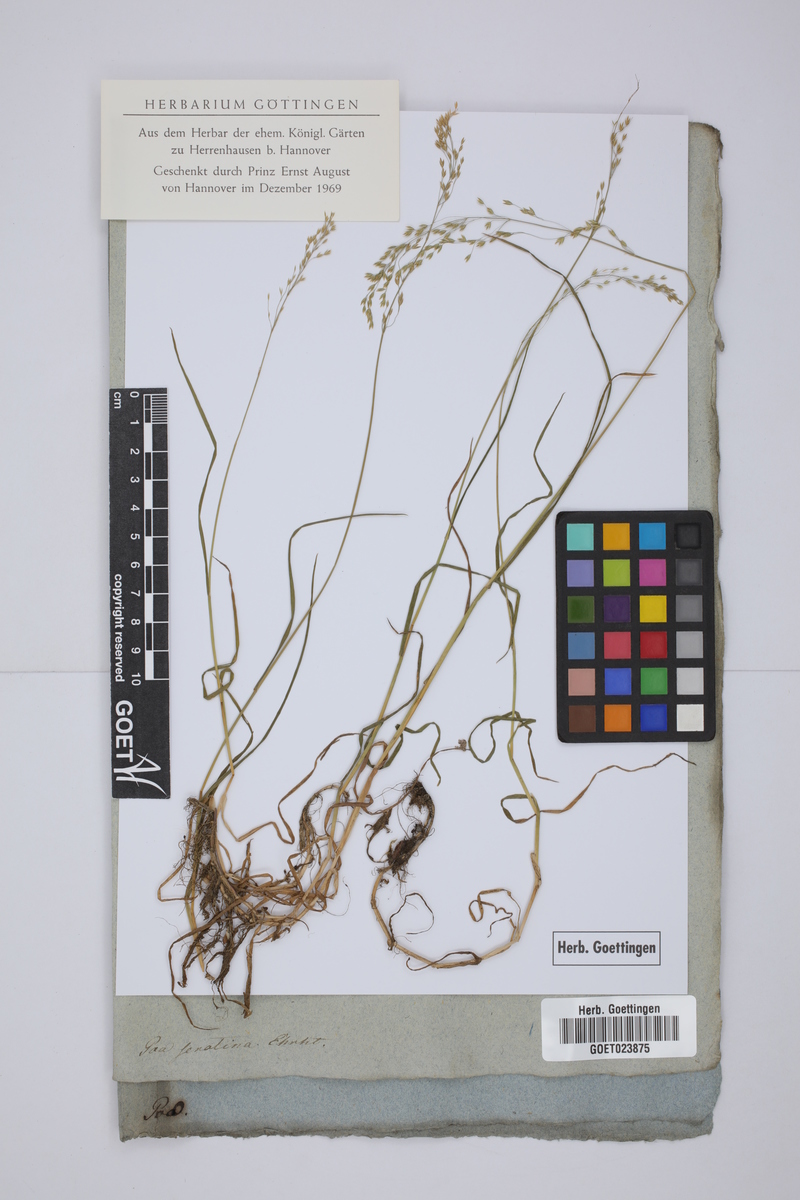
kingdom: Plantae
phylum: Tracheophyta
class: Liliopsida
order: Poales
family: Poaceae
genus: Poa
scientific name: Poa palustris
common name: Swamp meadow-grass
